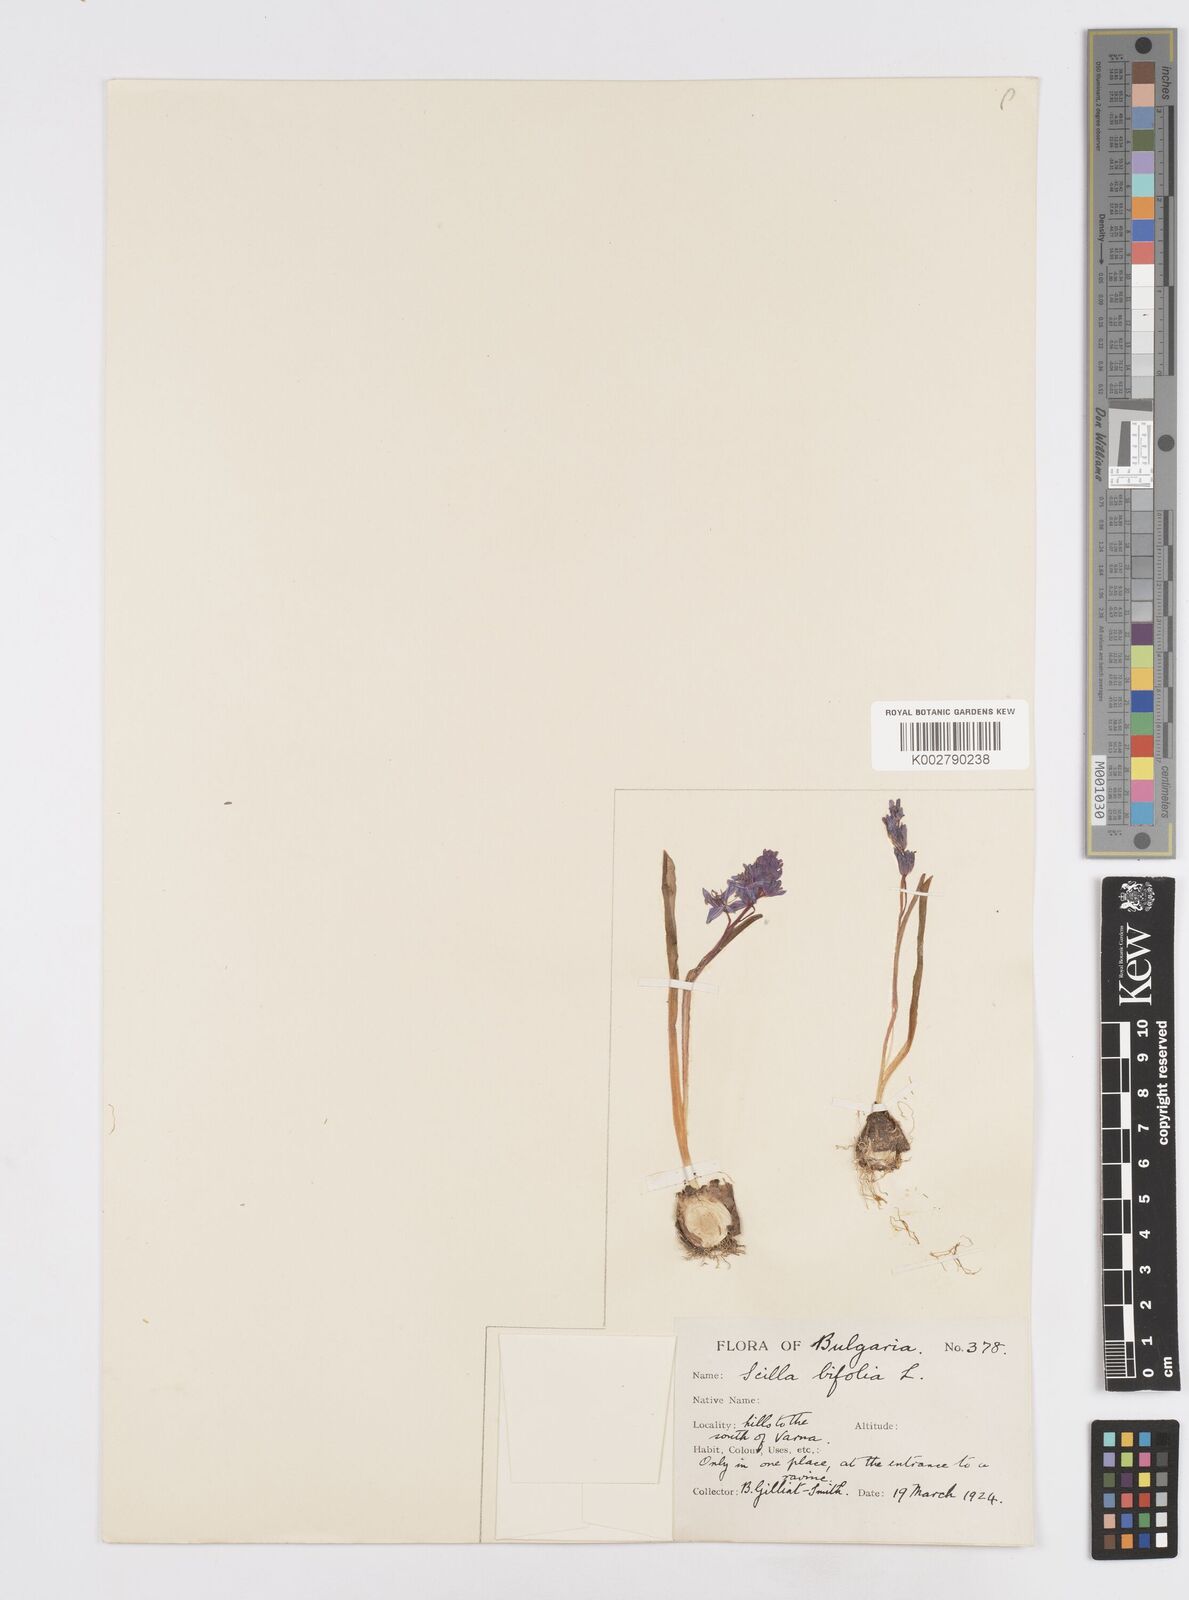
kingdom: Plantae
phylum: Tracheophyta
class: Liliopsida
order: Asparagales
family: Asparagaceae
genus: Scilla
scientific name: Scilla bifolia
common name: Alpine squill
